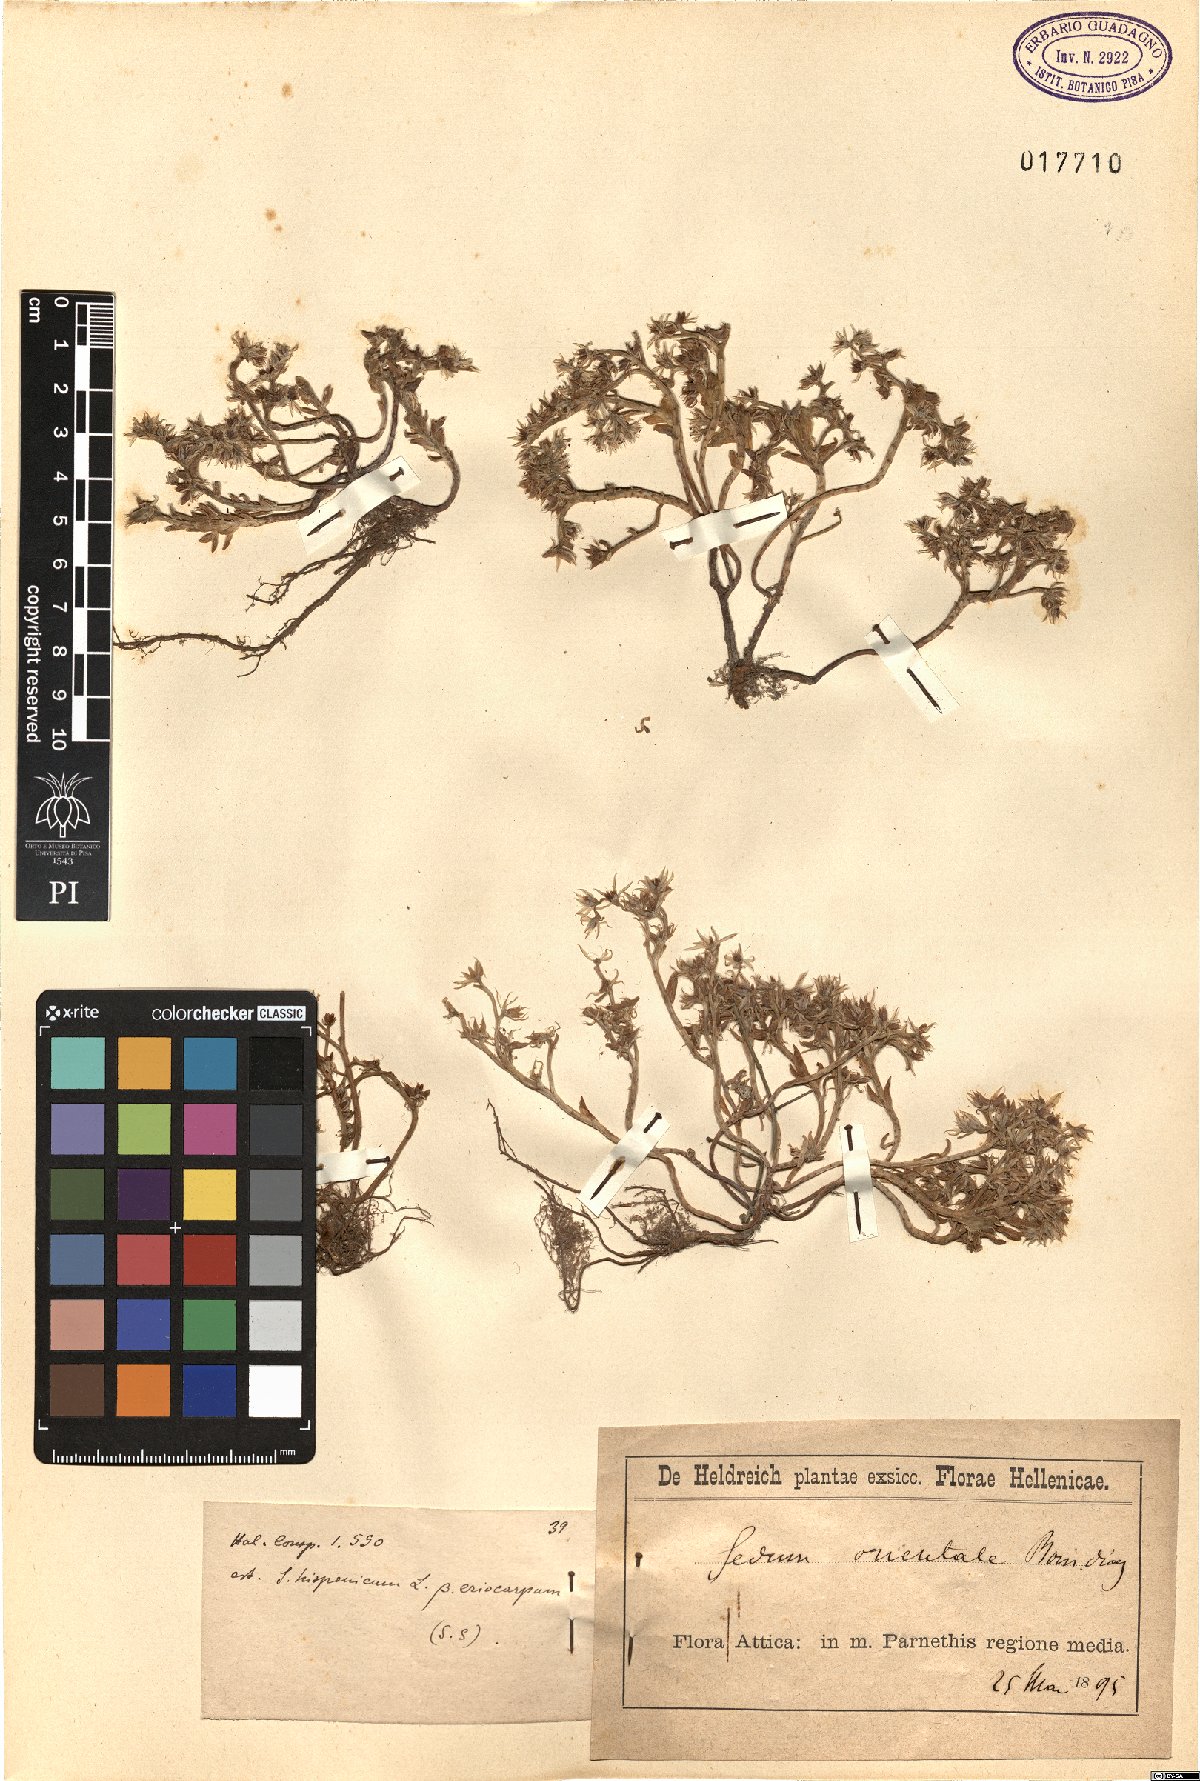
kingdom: Plantae
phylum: Tracheophyta
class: Magnoliopsida
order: Saxifragales
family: Crassulaceae
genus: Sedum
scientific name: Sedum hispanicum
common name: Spanish stonecrop
